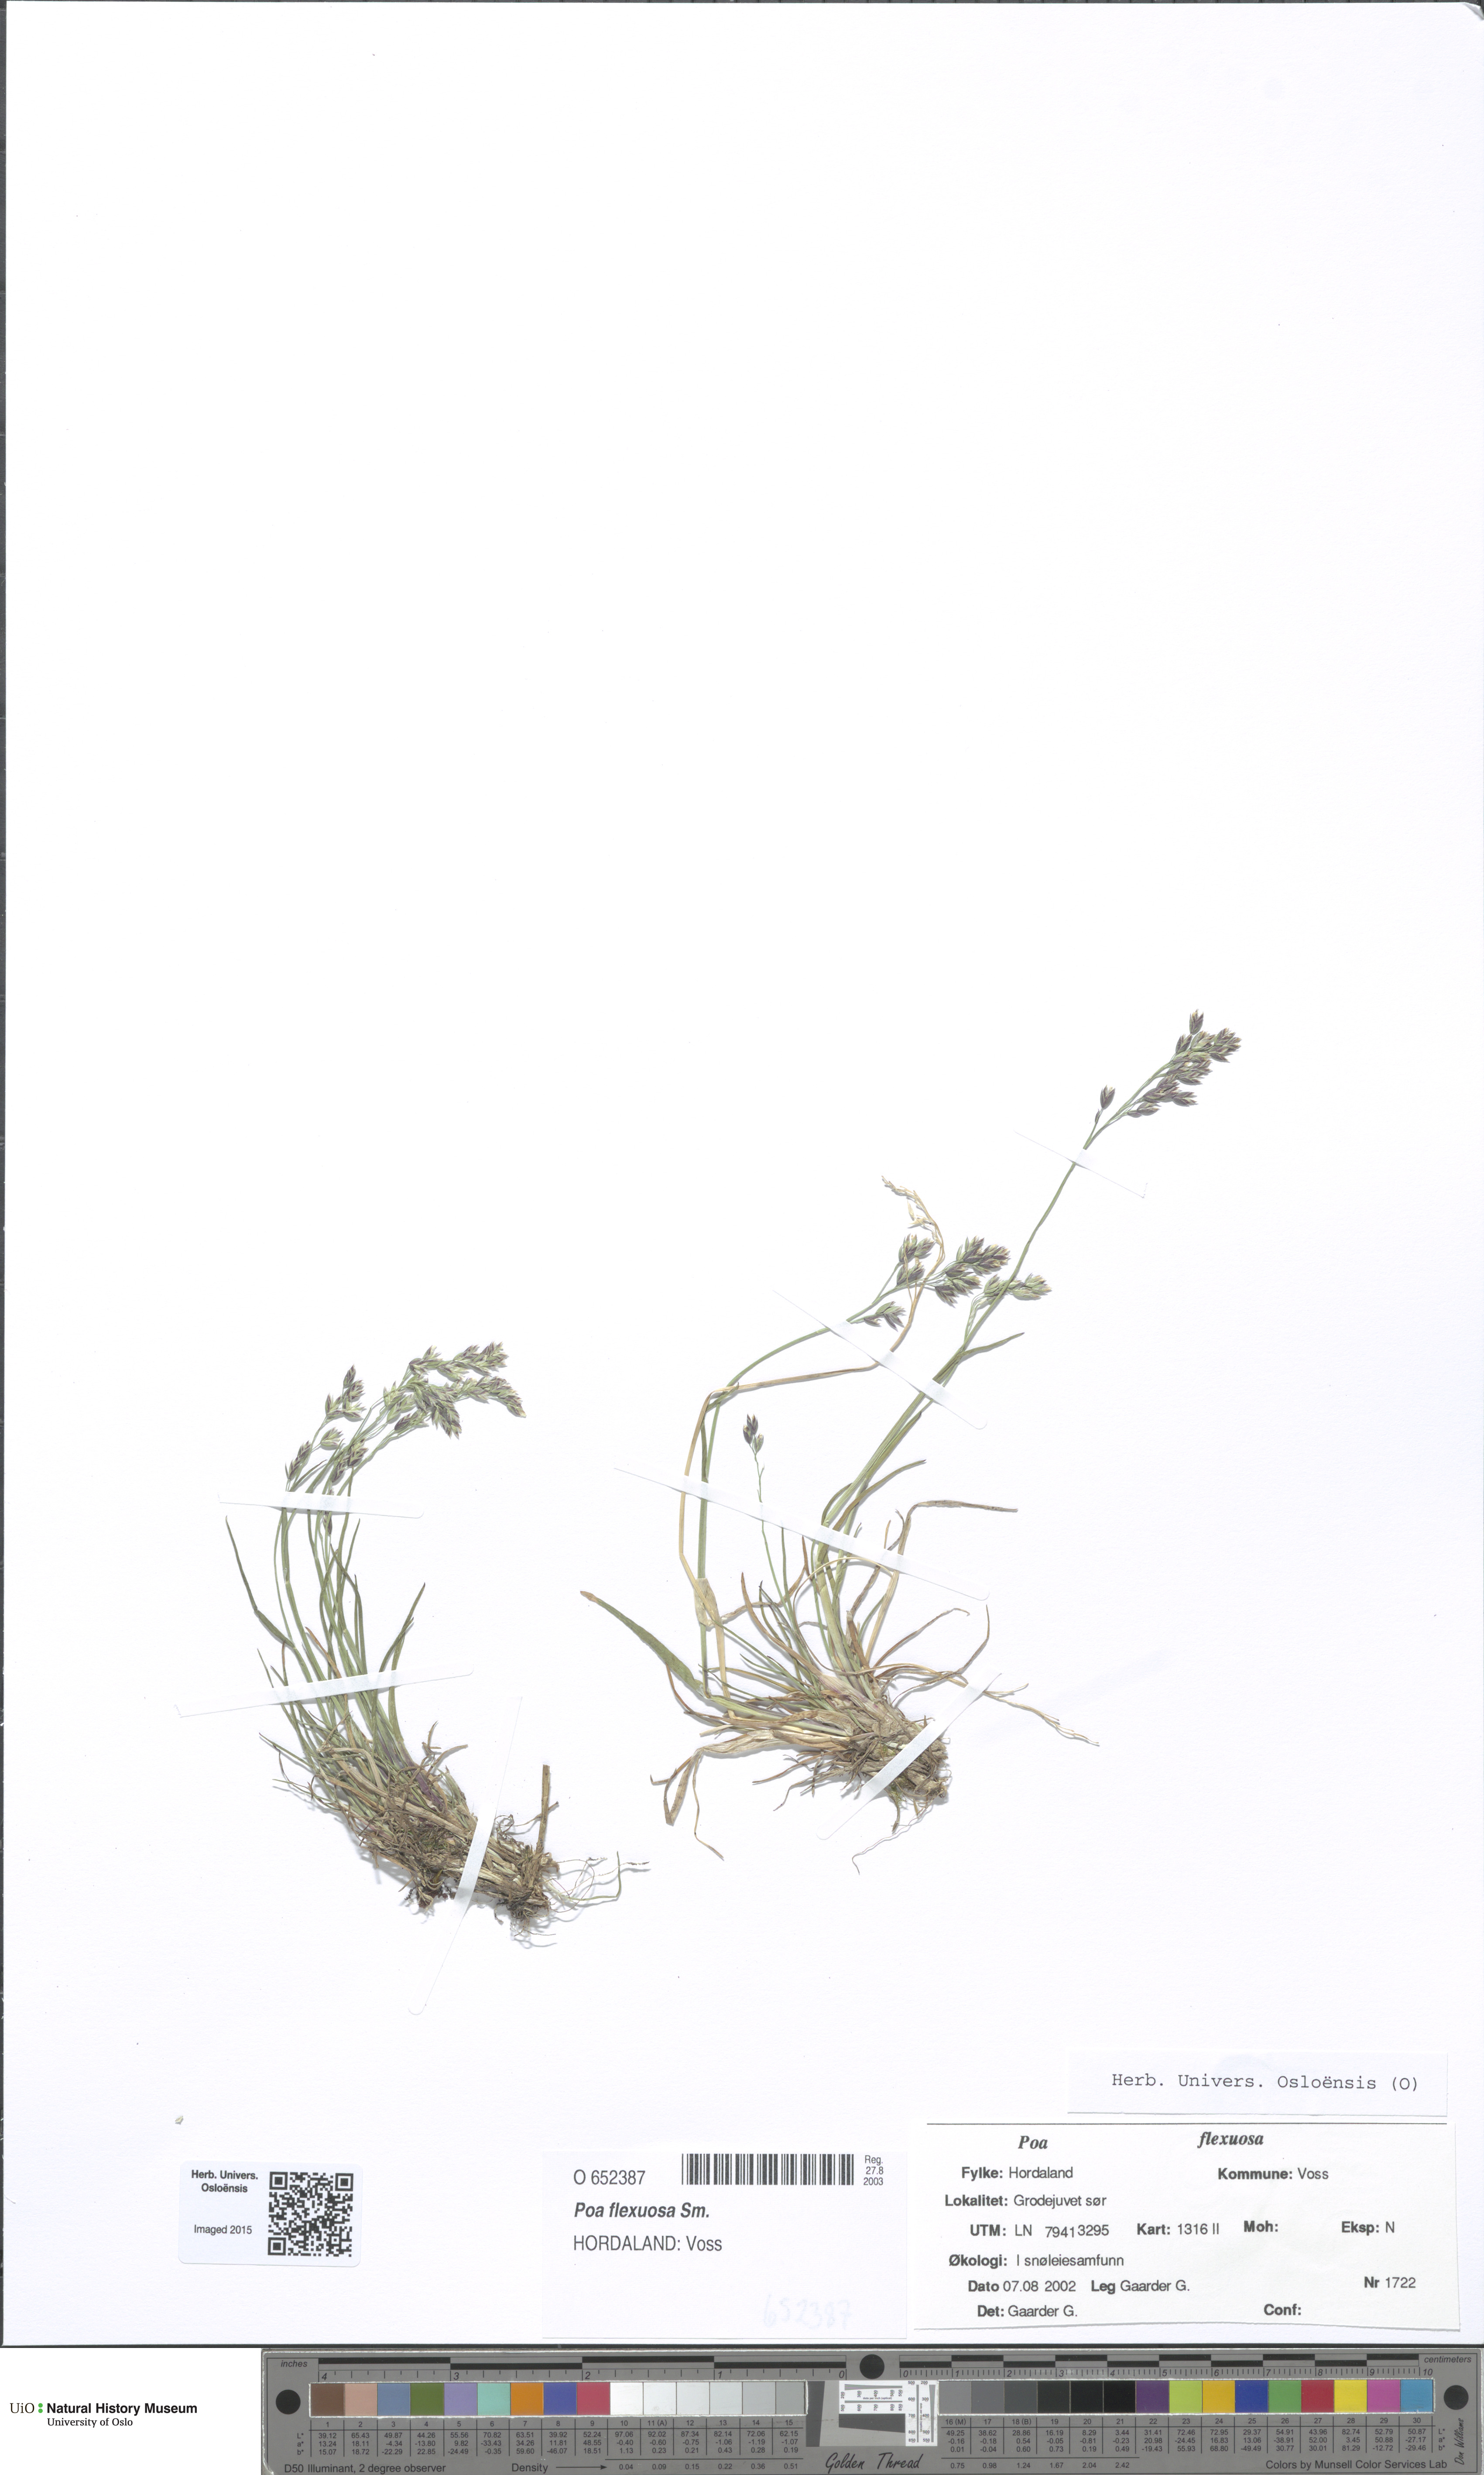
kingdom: Plantae
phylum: Tracheophyta
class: Liliopsida
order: Poales
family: Poaceae
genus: Poa
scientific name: Poa flexuosa
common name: Wavy meadow-grass
